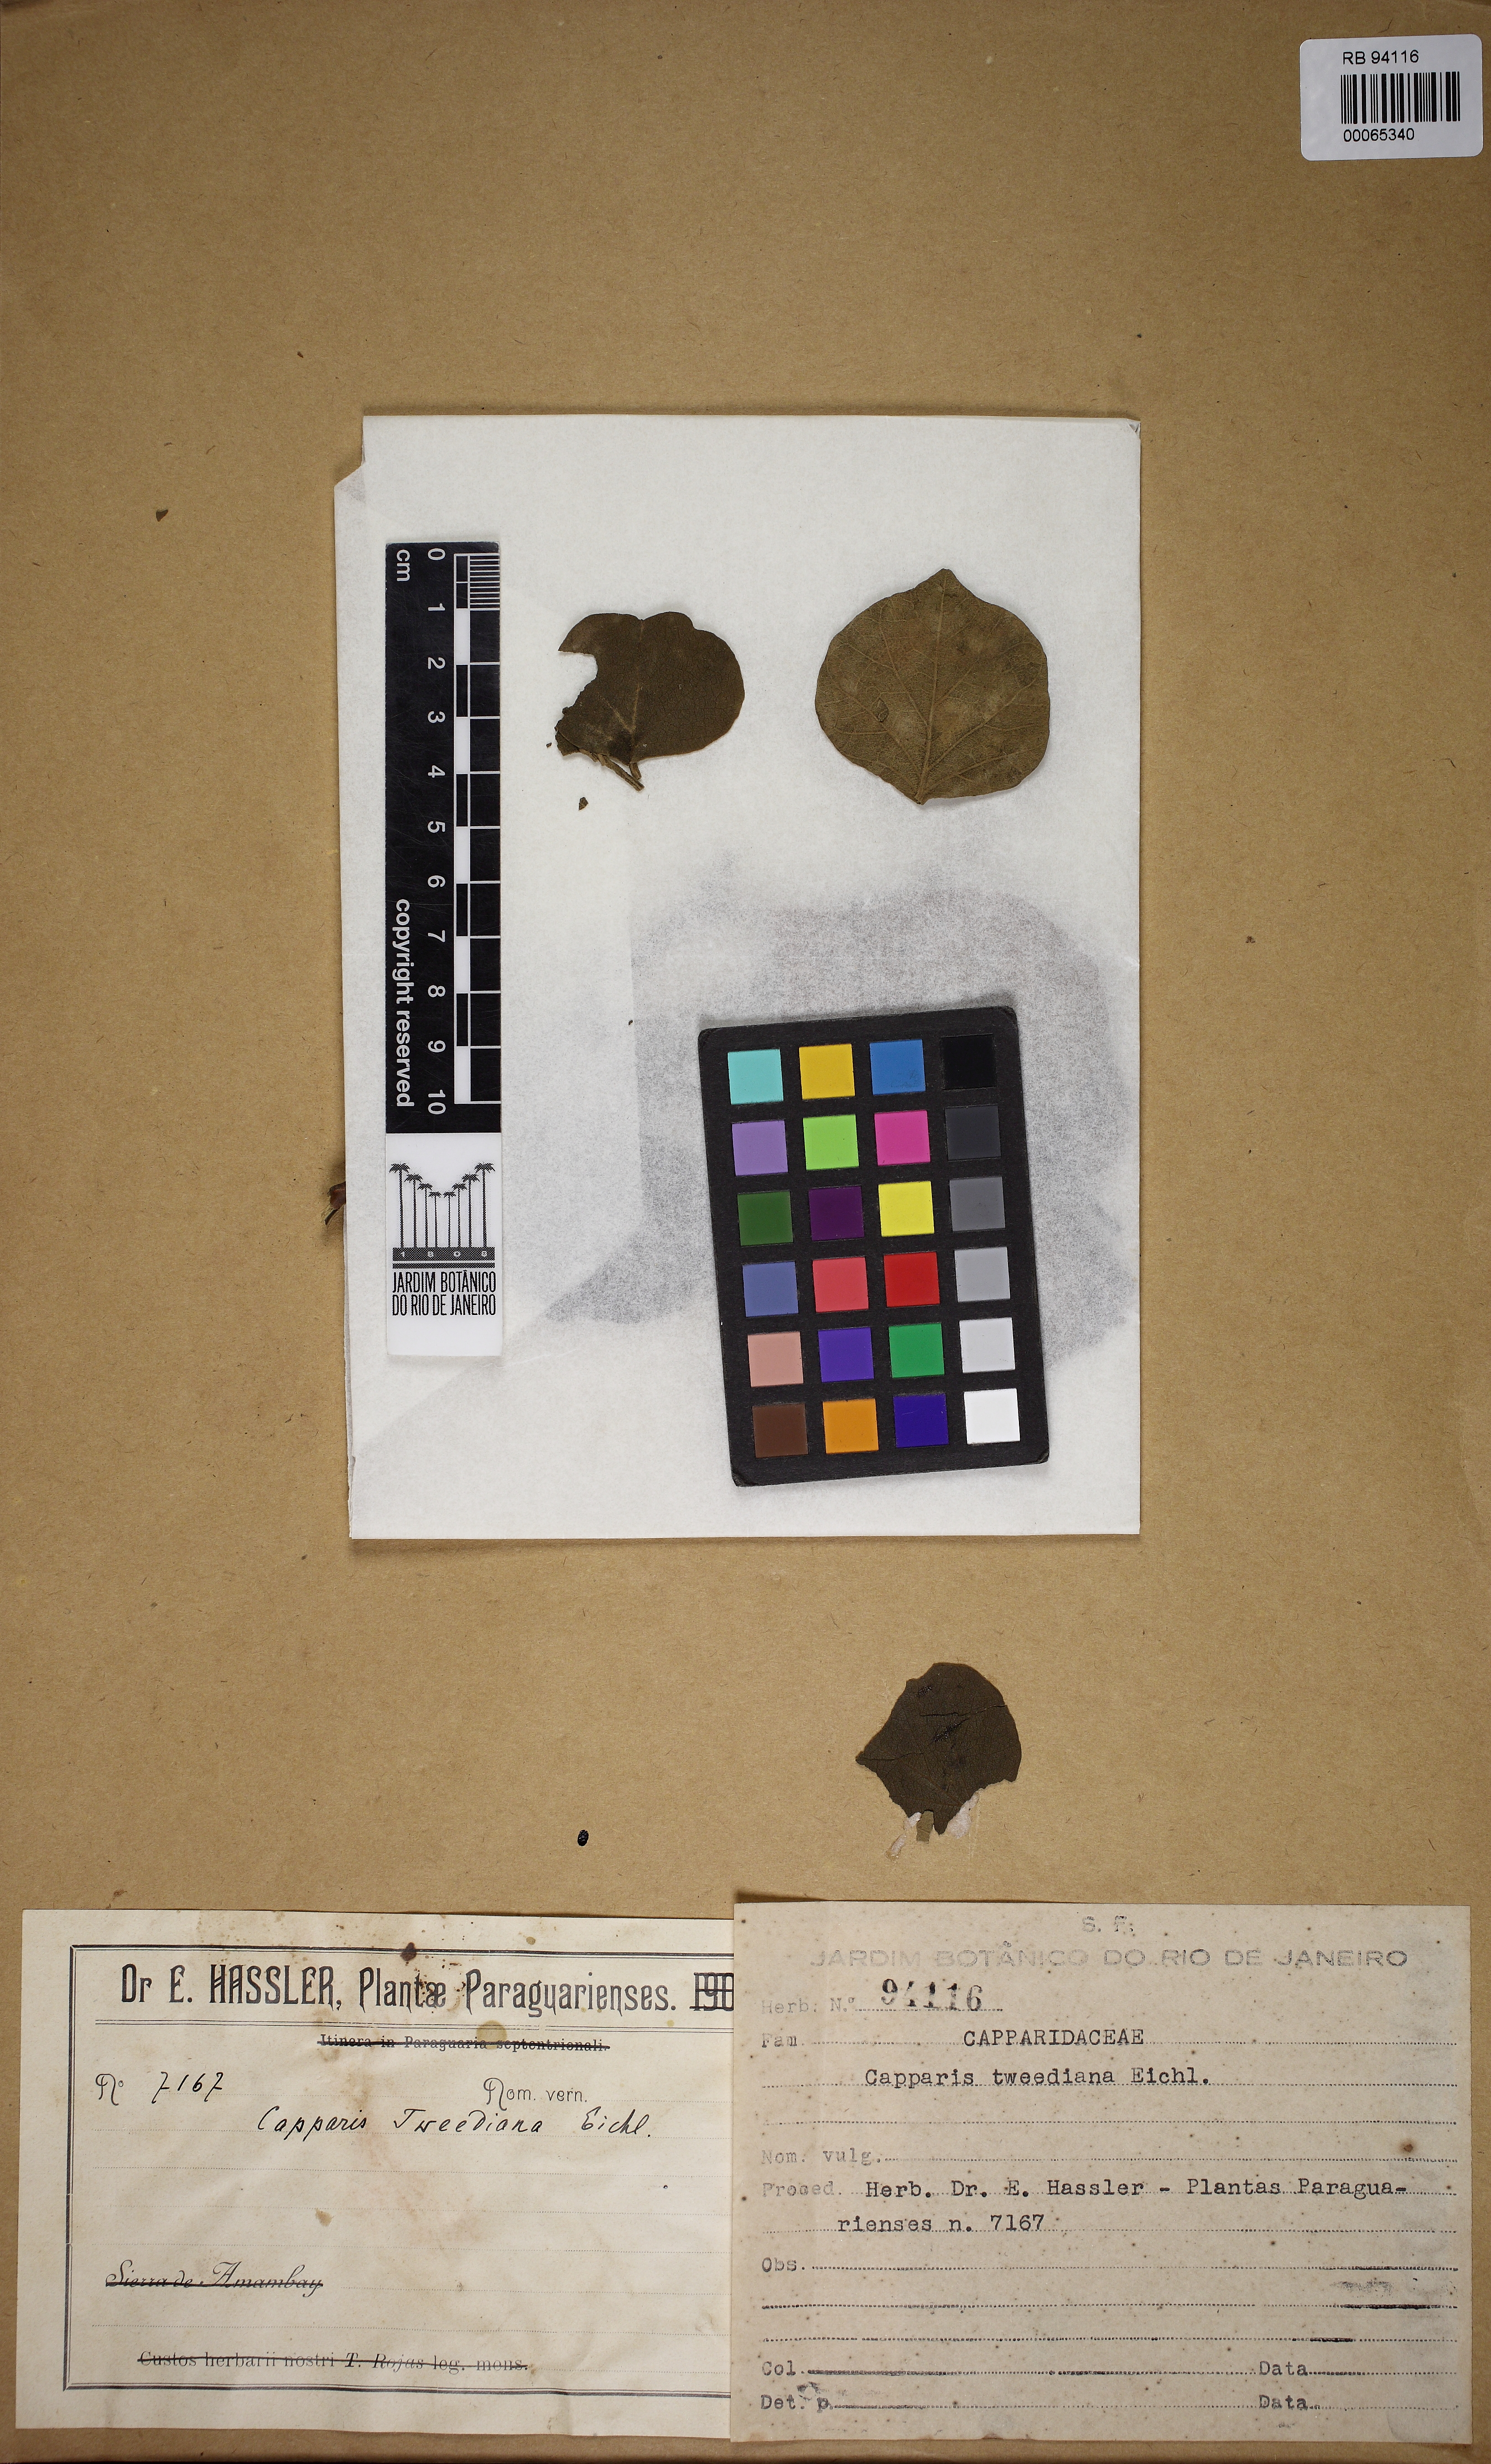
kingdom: Plantae
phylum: Tracheophyta
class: Magnoliopsida
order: Brassicales
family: Capparaceae
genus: Capparicordis
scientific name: Capparicordis tweediana
